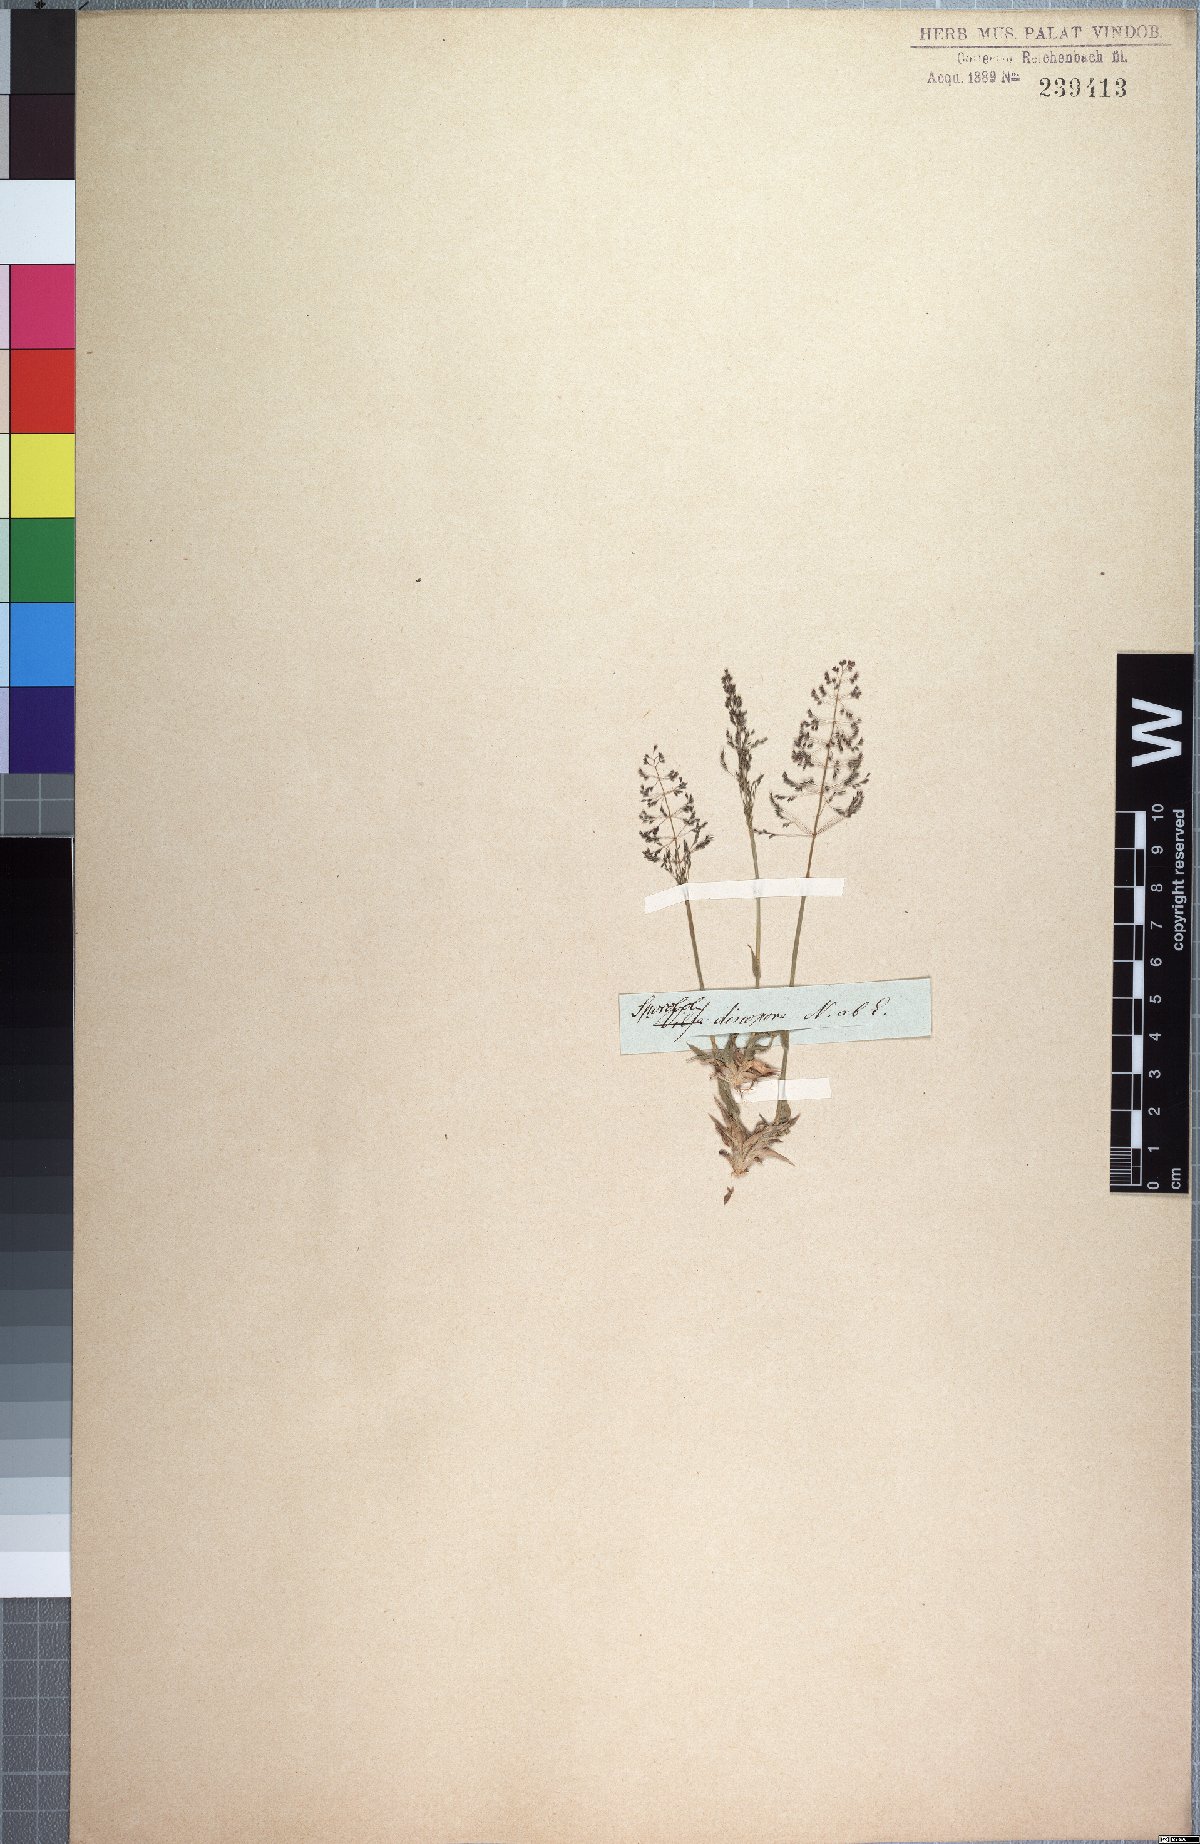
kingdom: Plantae
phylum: Tracheophyta
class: Liliopsida
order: Poales
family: Poaceae
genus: Sporobolus
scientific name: Sporobolus discosporus
